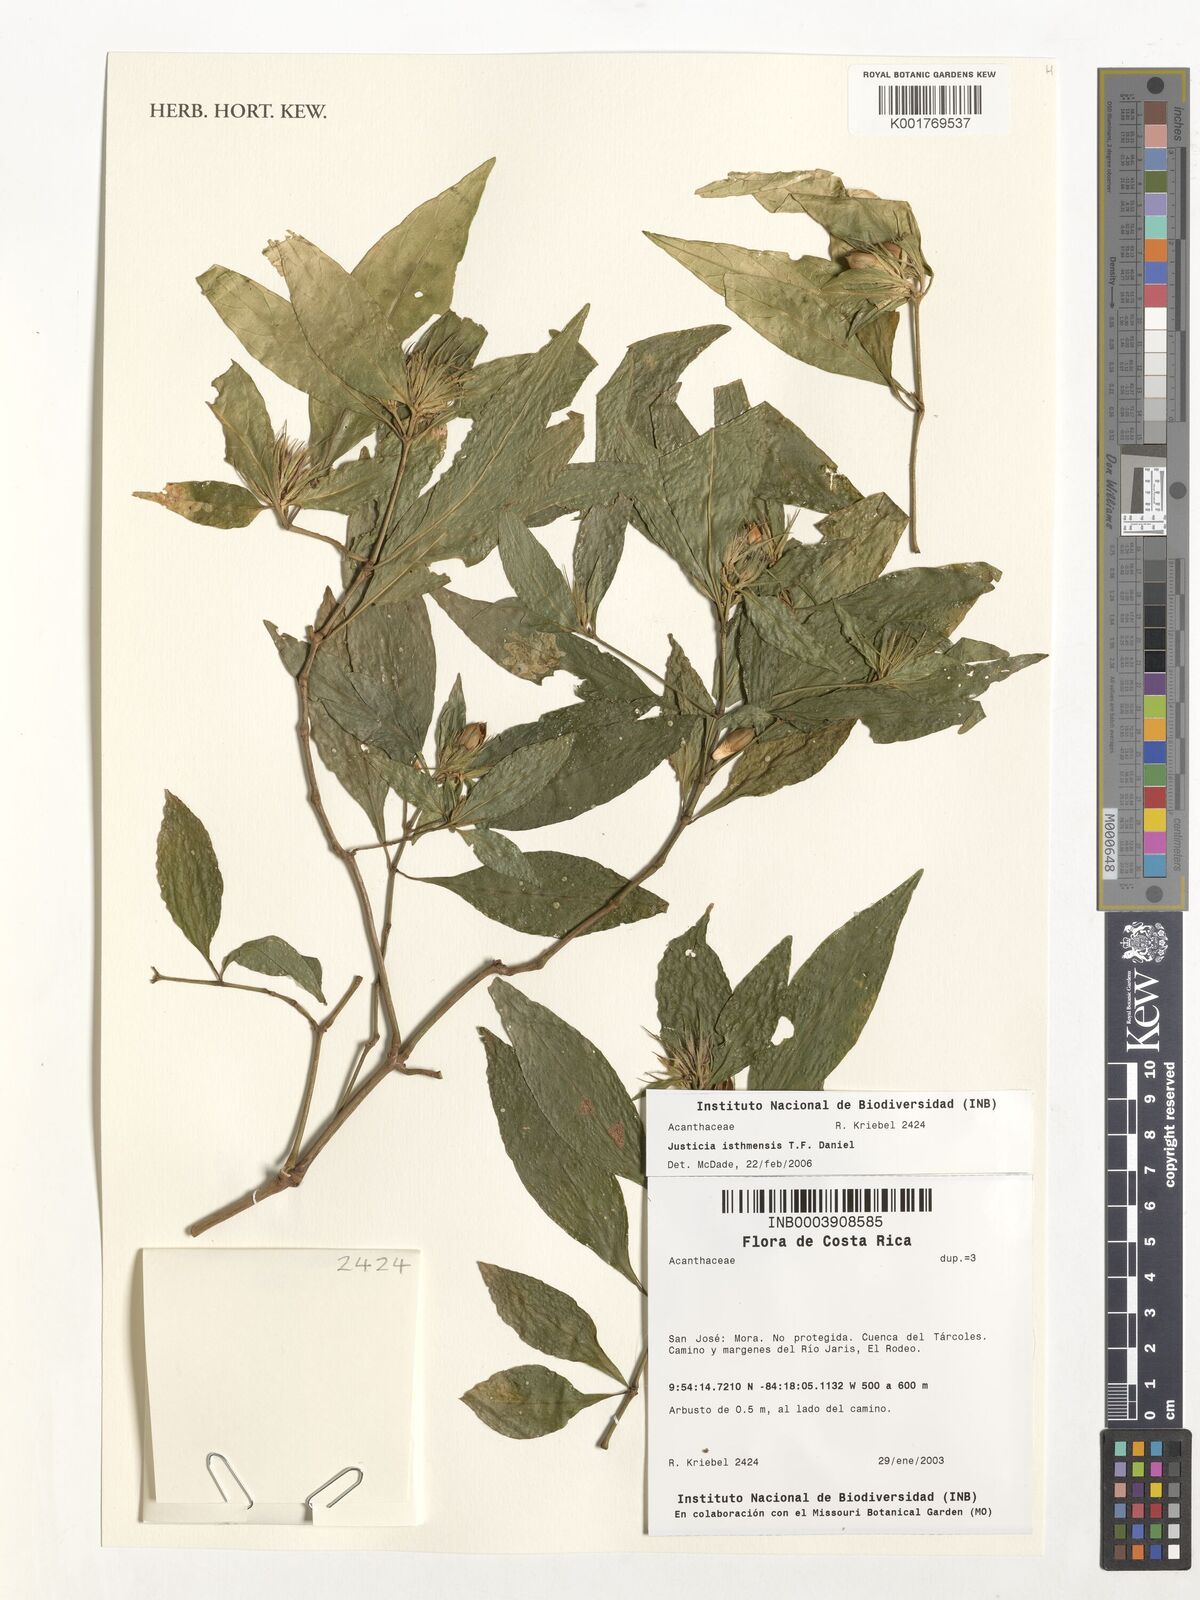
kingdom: Plantae
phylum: Tracheophyta
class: Magnoliopsida
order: Lamiales
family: Acanthaceae
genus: Justicia
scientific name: Justicia isthmensis
